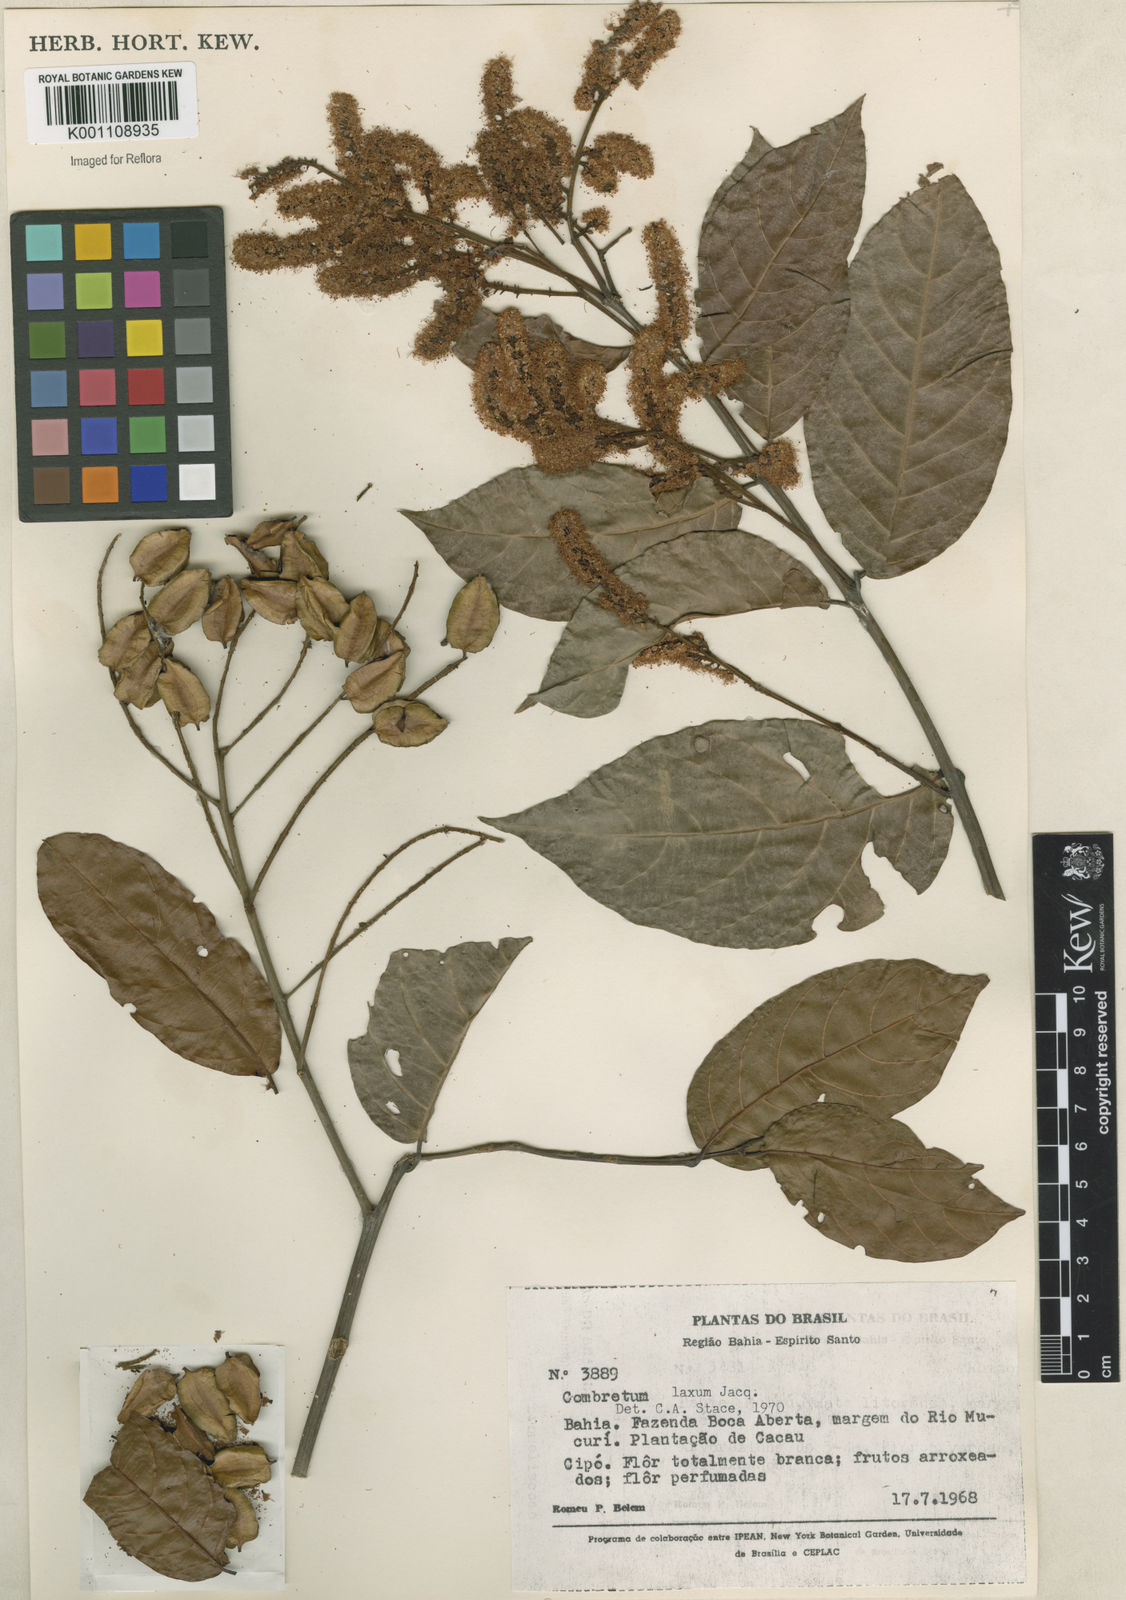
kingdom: Plantae
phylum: Tracheophyta
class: Magnoliopsida
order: Myrtales
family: Combretaceae
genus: Combretum
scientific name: Combretum laxum
